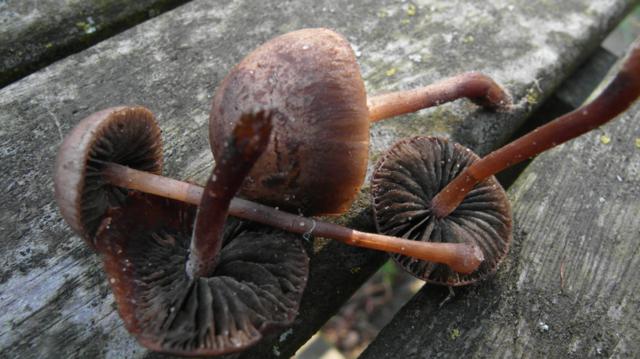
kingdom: Fungi
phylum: Basidiomycota
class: Agaricomycetes
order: Agaricales
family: Bolbitiaceae
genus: Panaeolus
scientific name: Panaeolus fimicola
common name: tidlig glanshat
